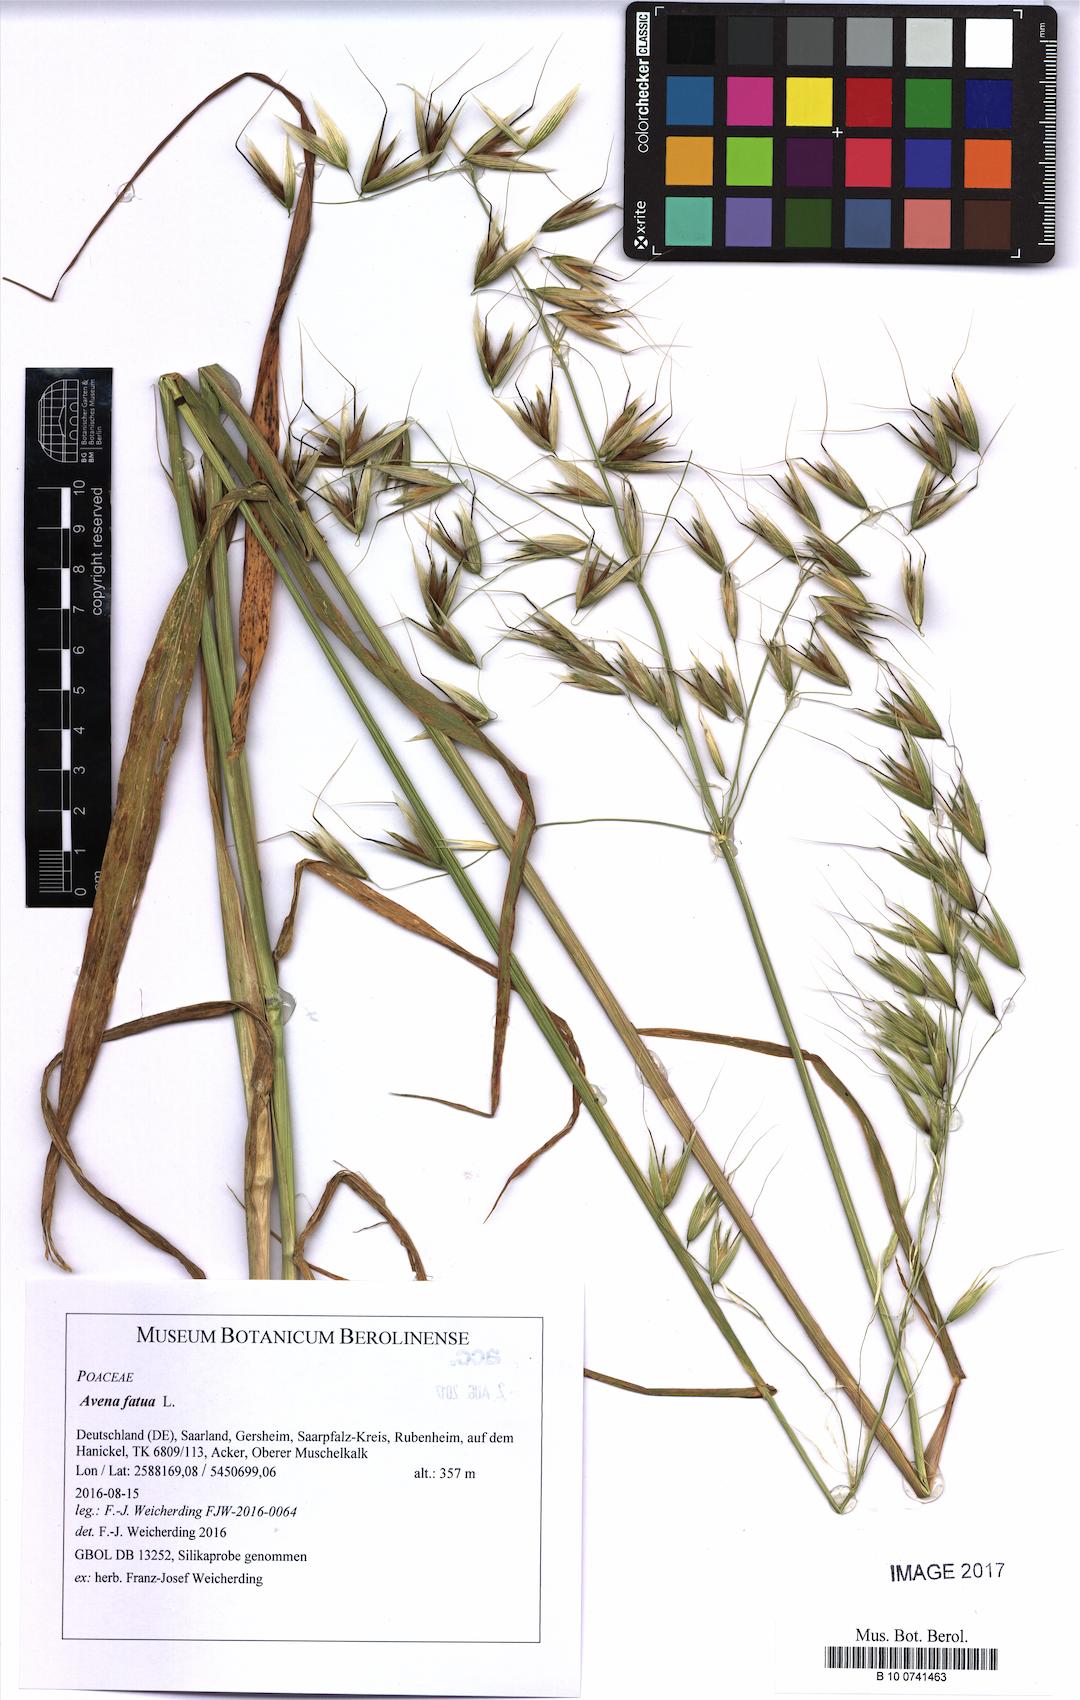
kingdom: Plantae
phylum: Tracheophyta
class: Liliopsida
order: Poales
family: Poaceae
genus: Avena
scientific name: Avena fatua
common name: Wild oat
